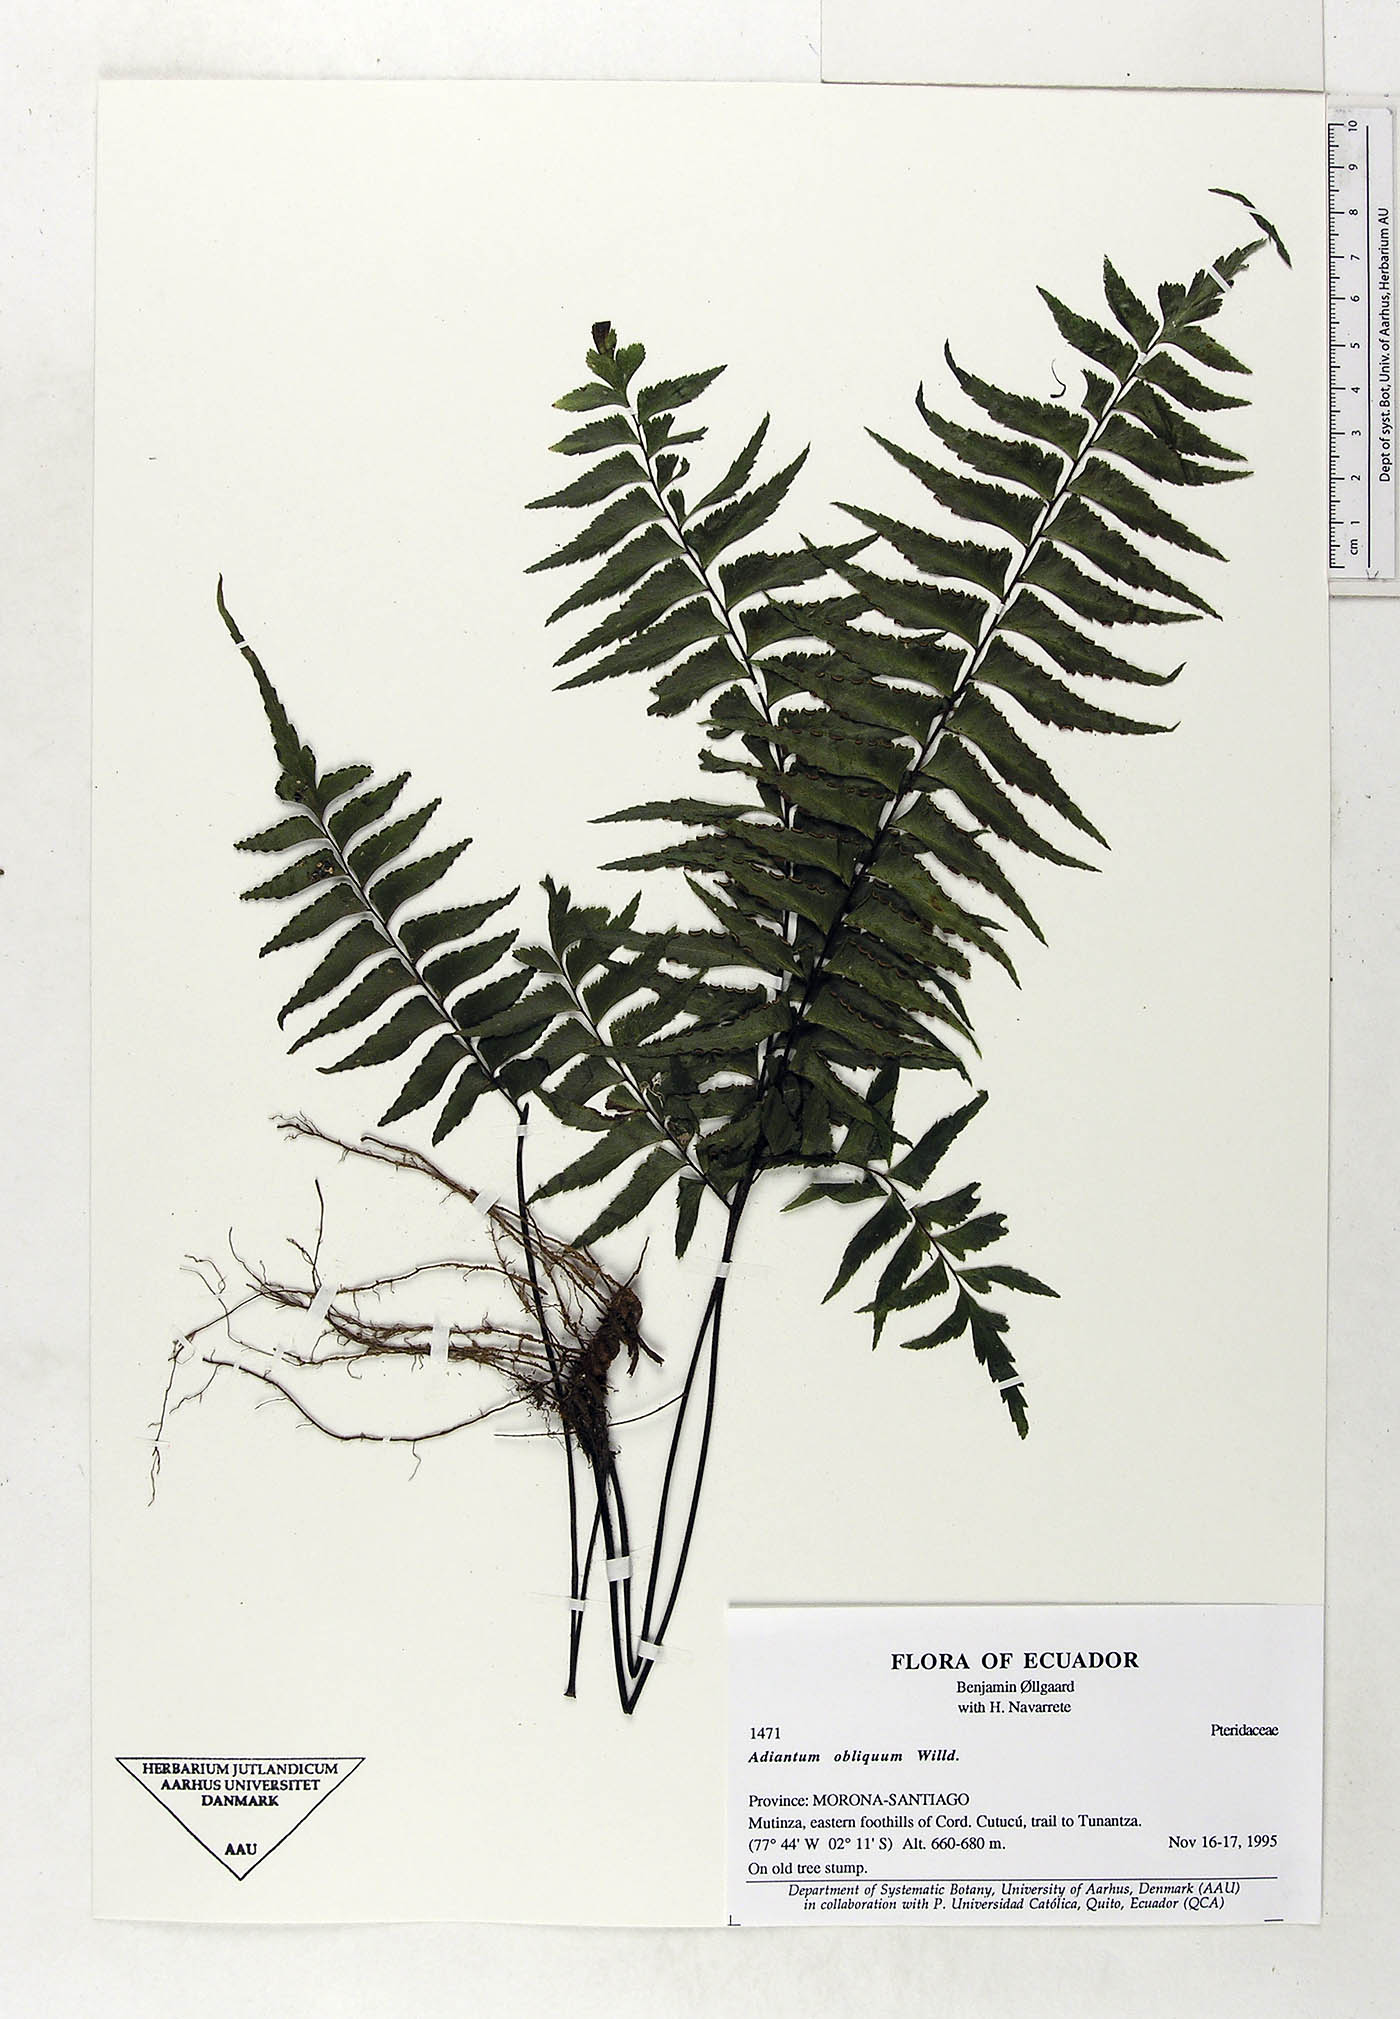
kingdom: Plantae
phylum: Tracheophyta
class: Polypodiopsida
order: Polypodiales
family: Pteridaceae
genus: Adiantum
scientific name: Adiantum obliquum
